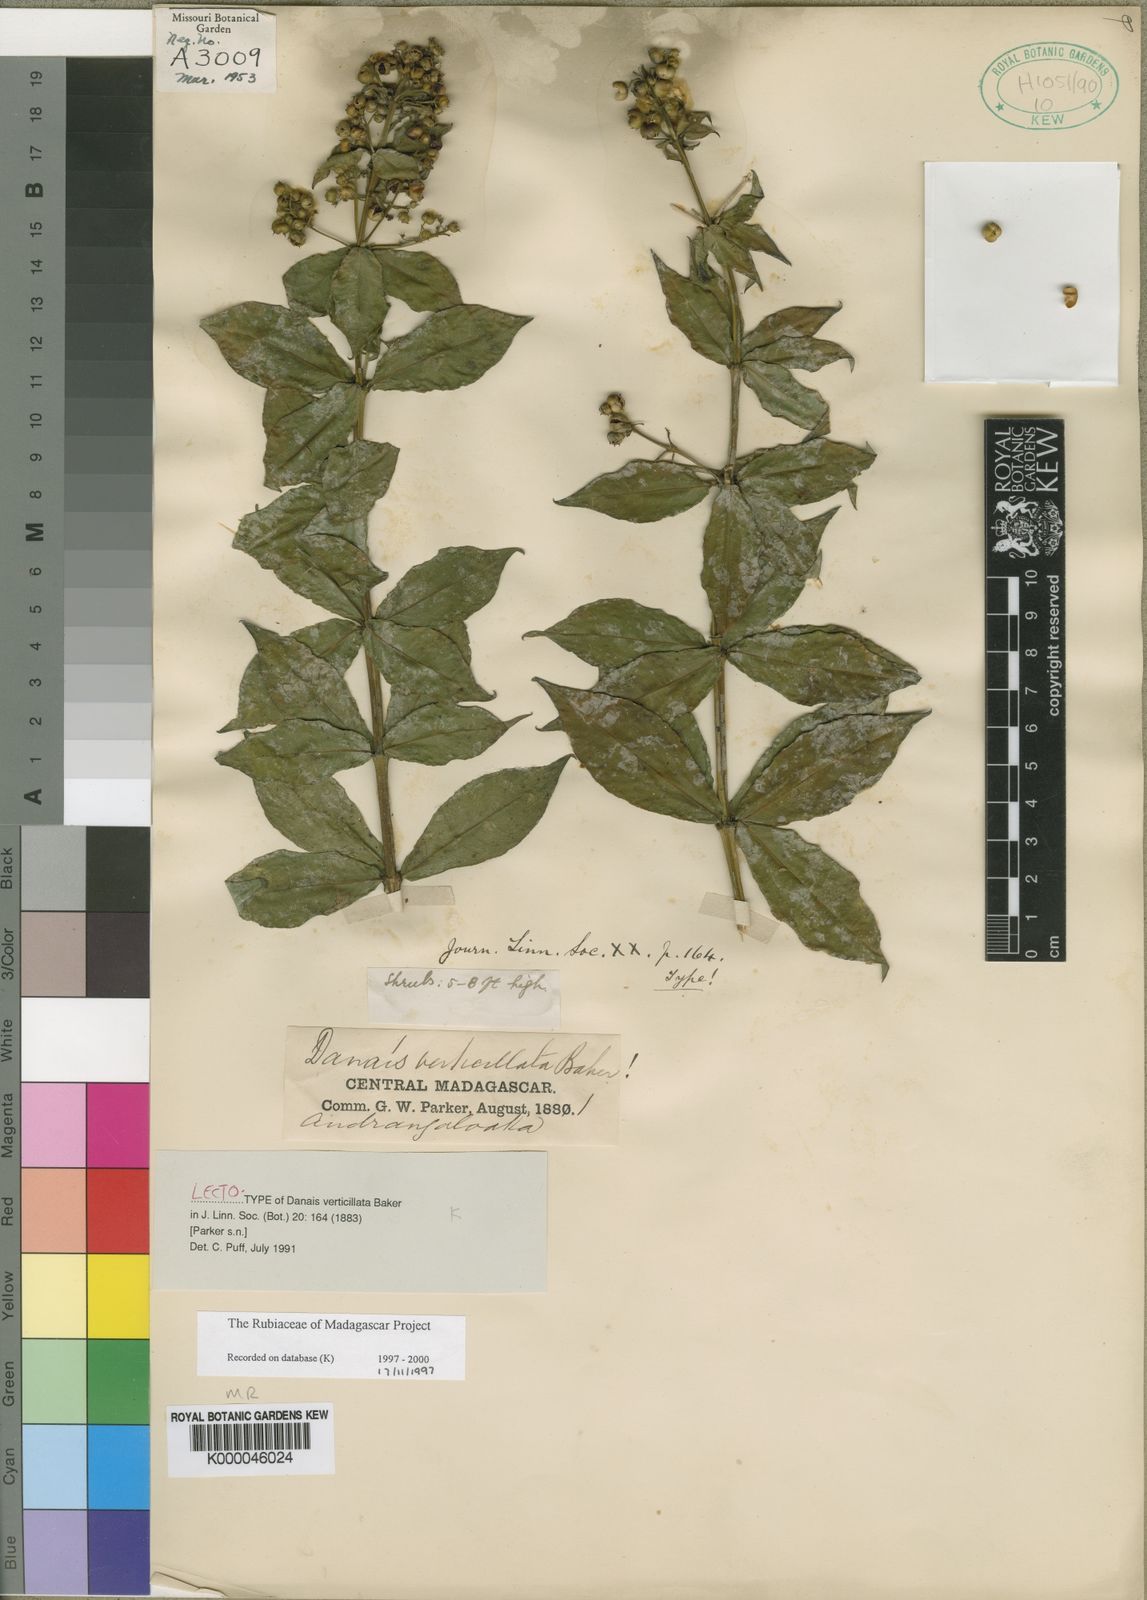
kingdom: Plantae
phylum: Tracheophyta
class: Magnoliopsida
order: Gentianales
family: Rubiaceae
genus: Danais
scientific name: Danais verticillata
